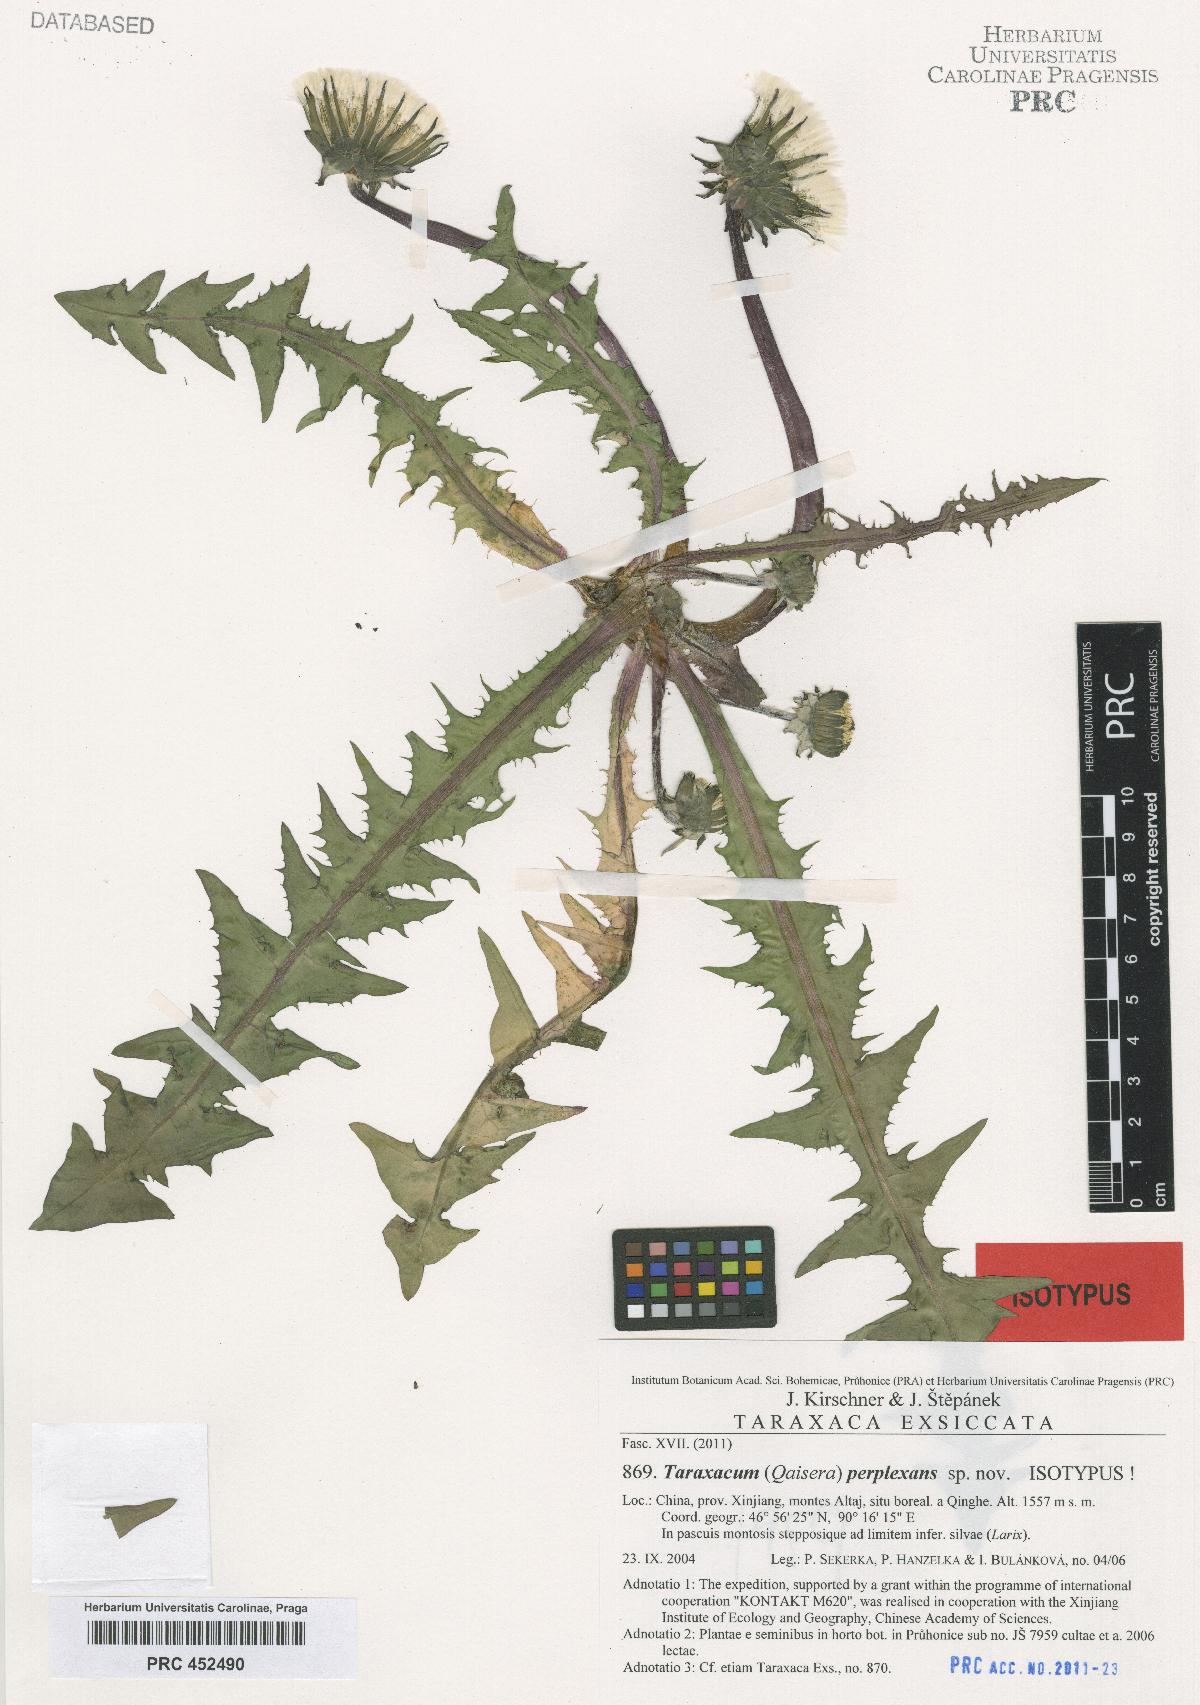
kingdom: Plantae
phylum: Tracheophyta
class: Magnoliopsida
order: Asterales
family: Asteraceae
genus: Taraxacum
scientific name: Taraxacum perplexans
